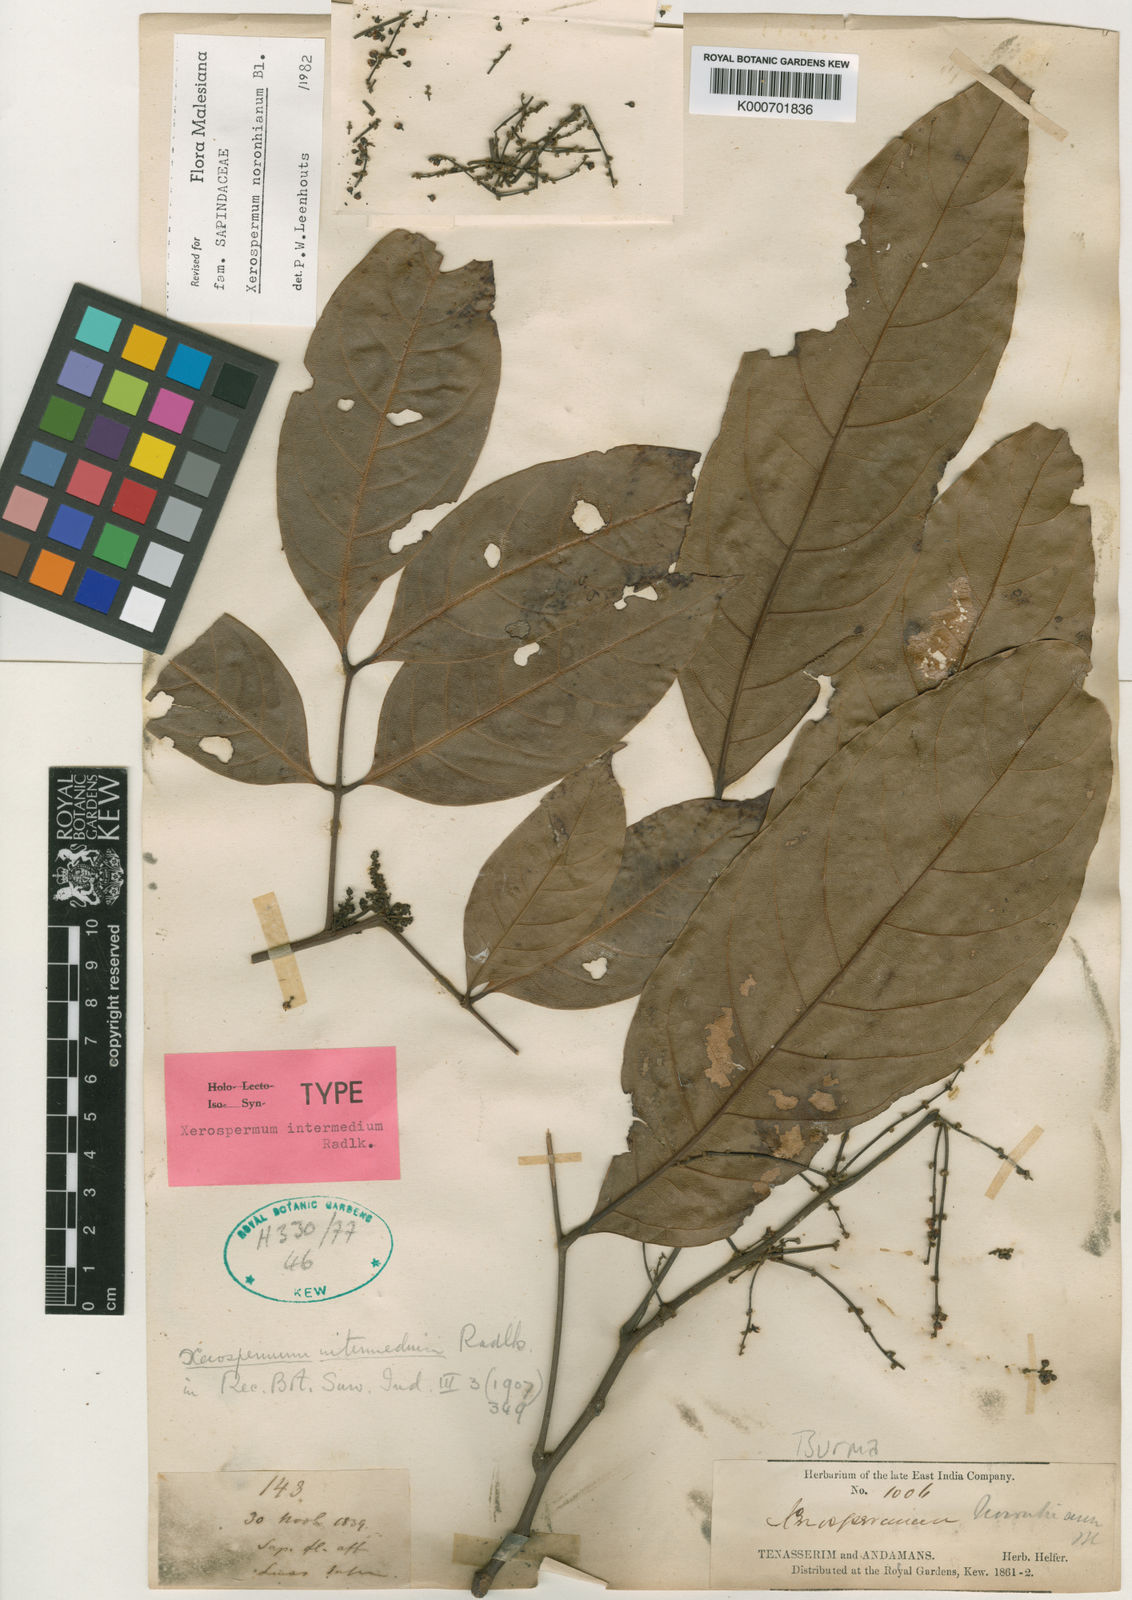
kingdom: Plantae
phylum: Tracheophyta
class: Magnoliopsida
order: Sapindales
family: Sapindaceae
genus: Xerospermum
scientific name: Xerospermum noronhianum
